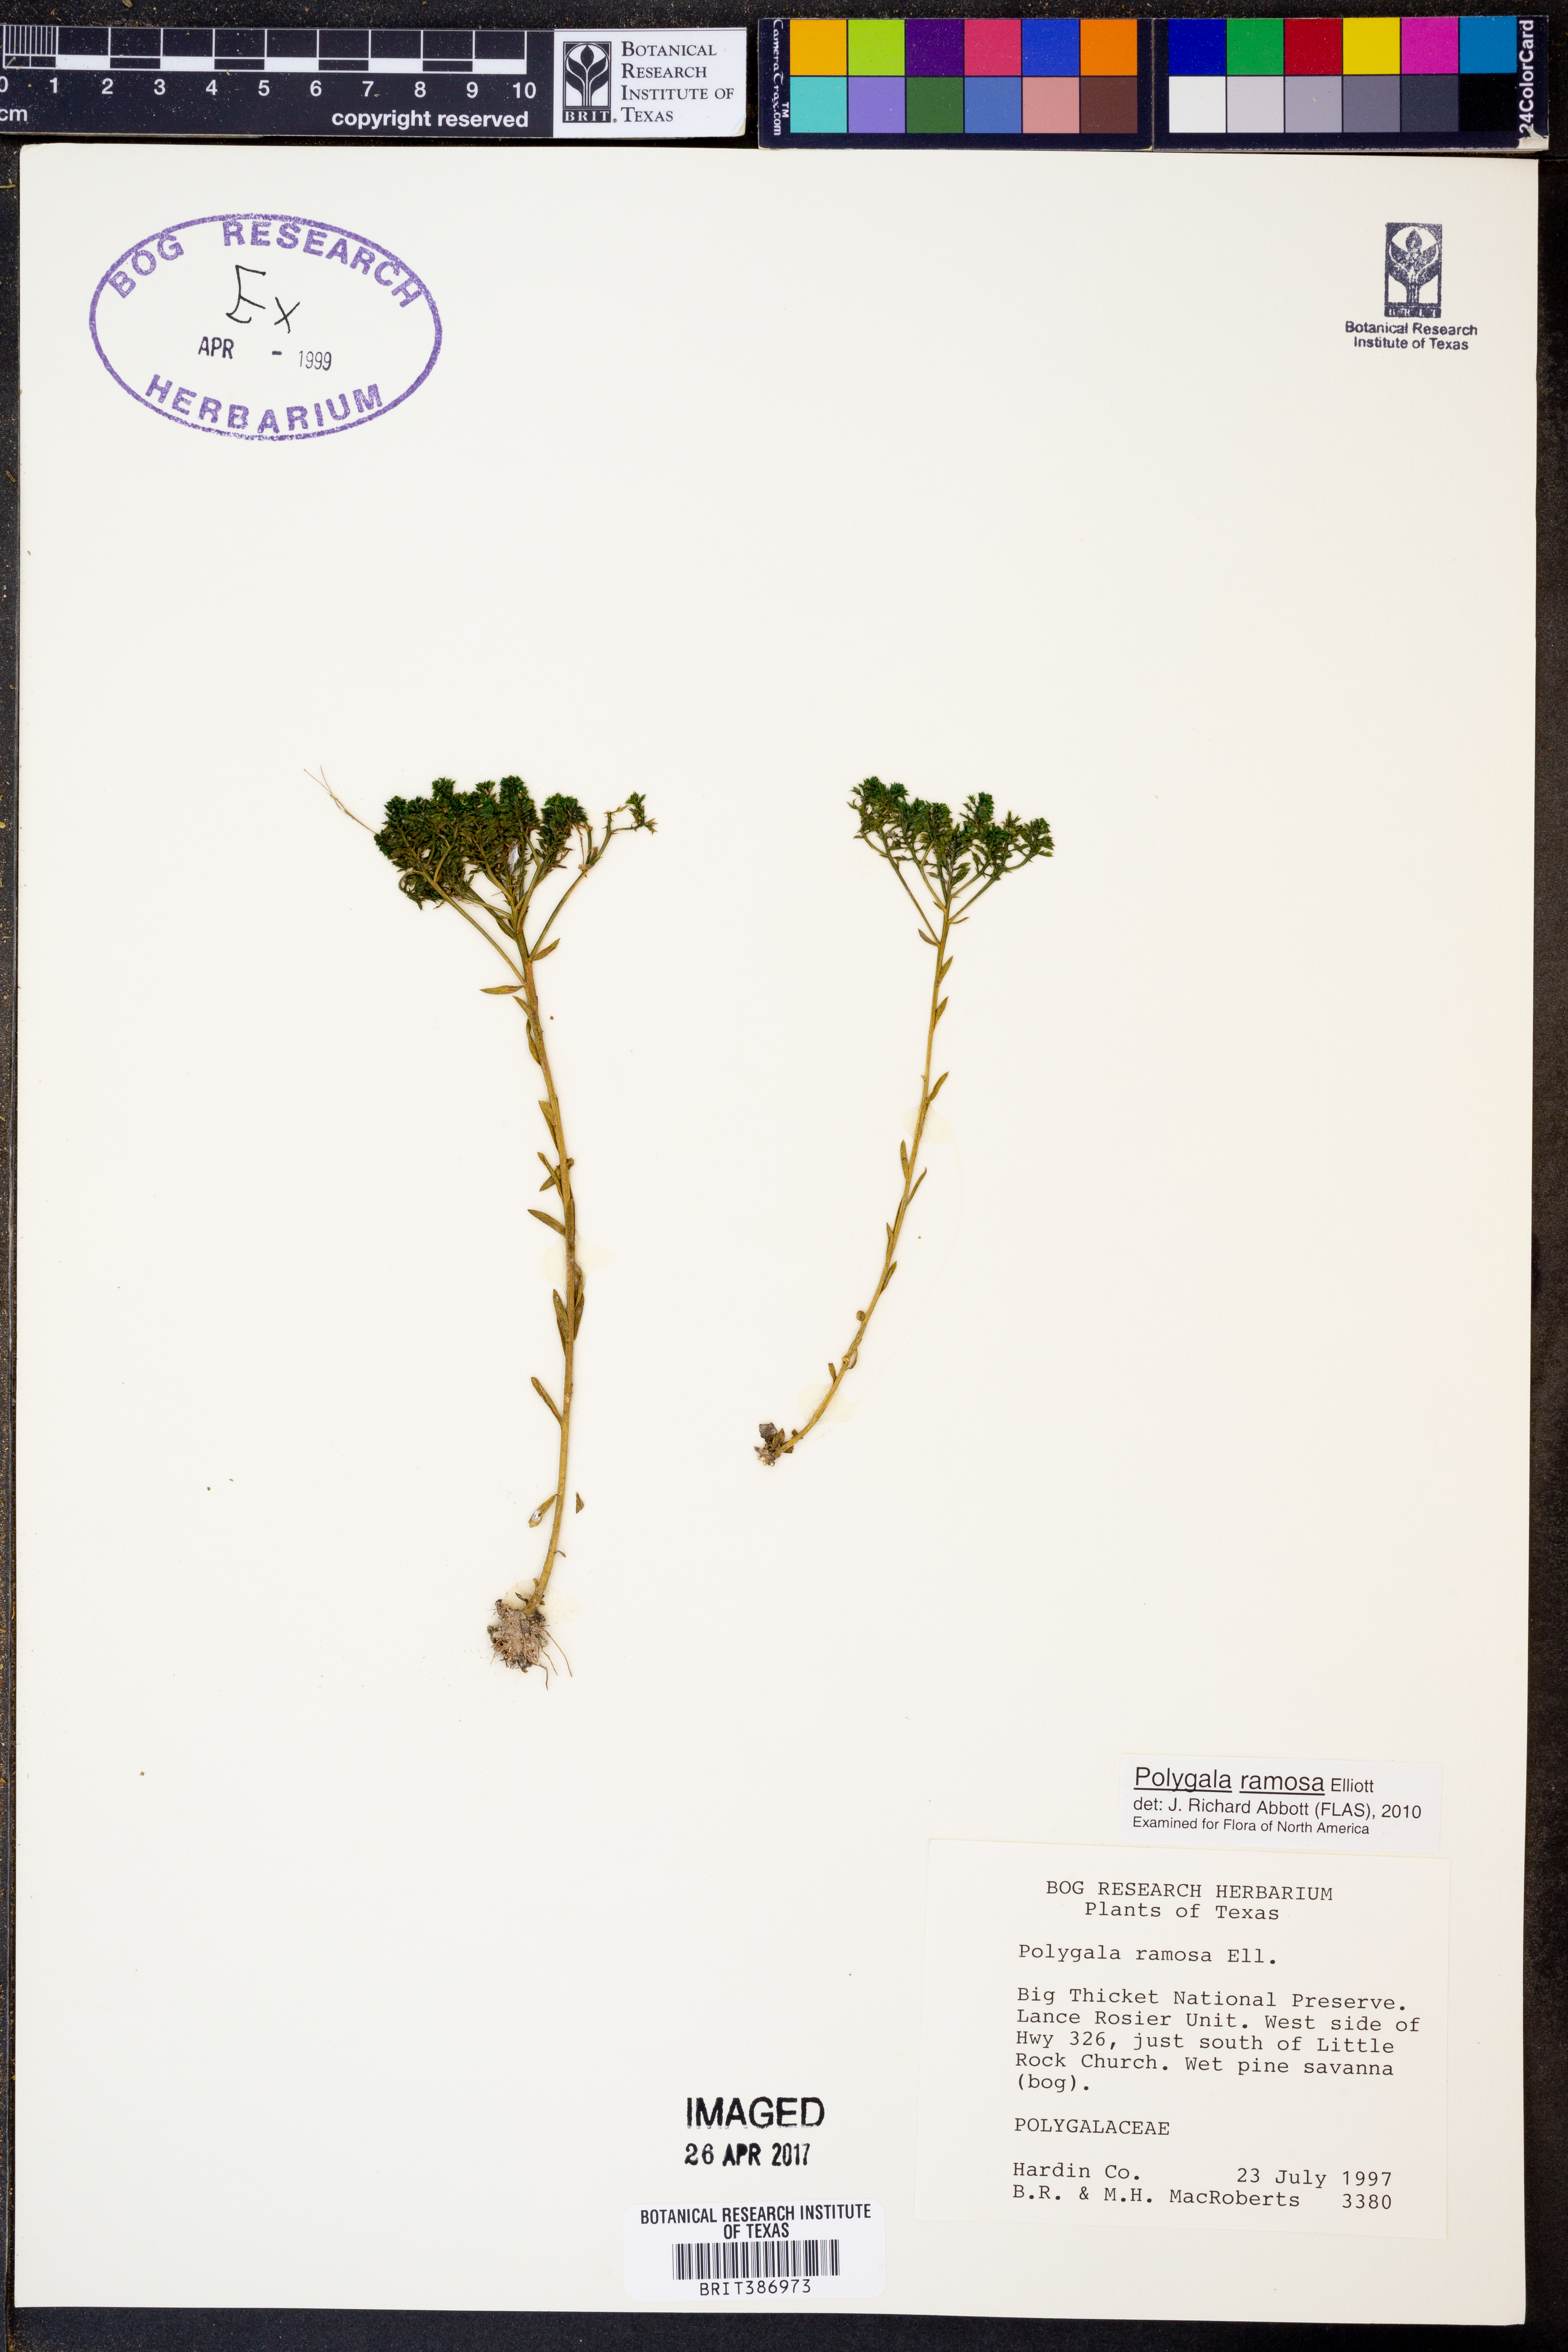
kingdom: Plantae
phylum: Tracheophyta
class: Magnoliopsida
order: Fabales
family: Polygalaceae
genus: Polygala
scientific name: Polygala ramosa
